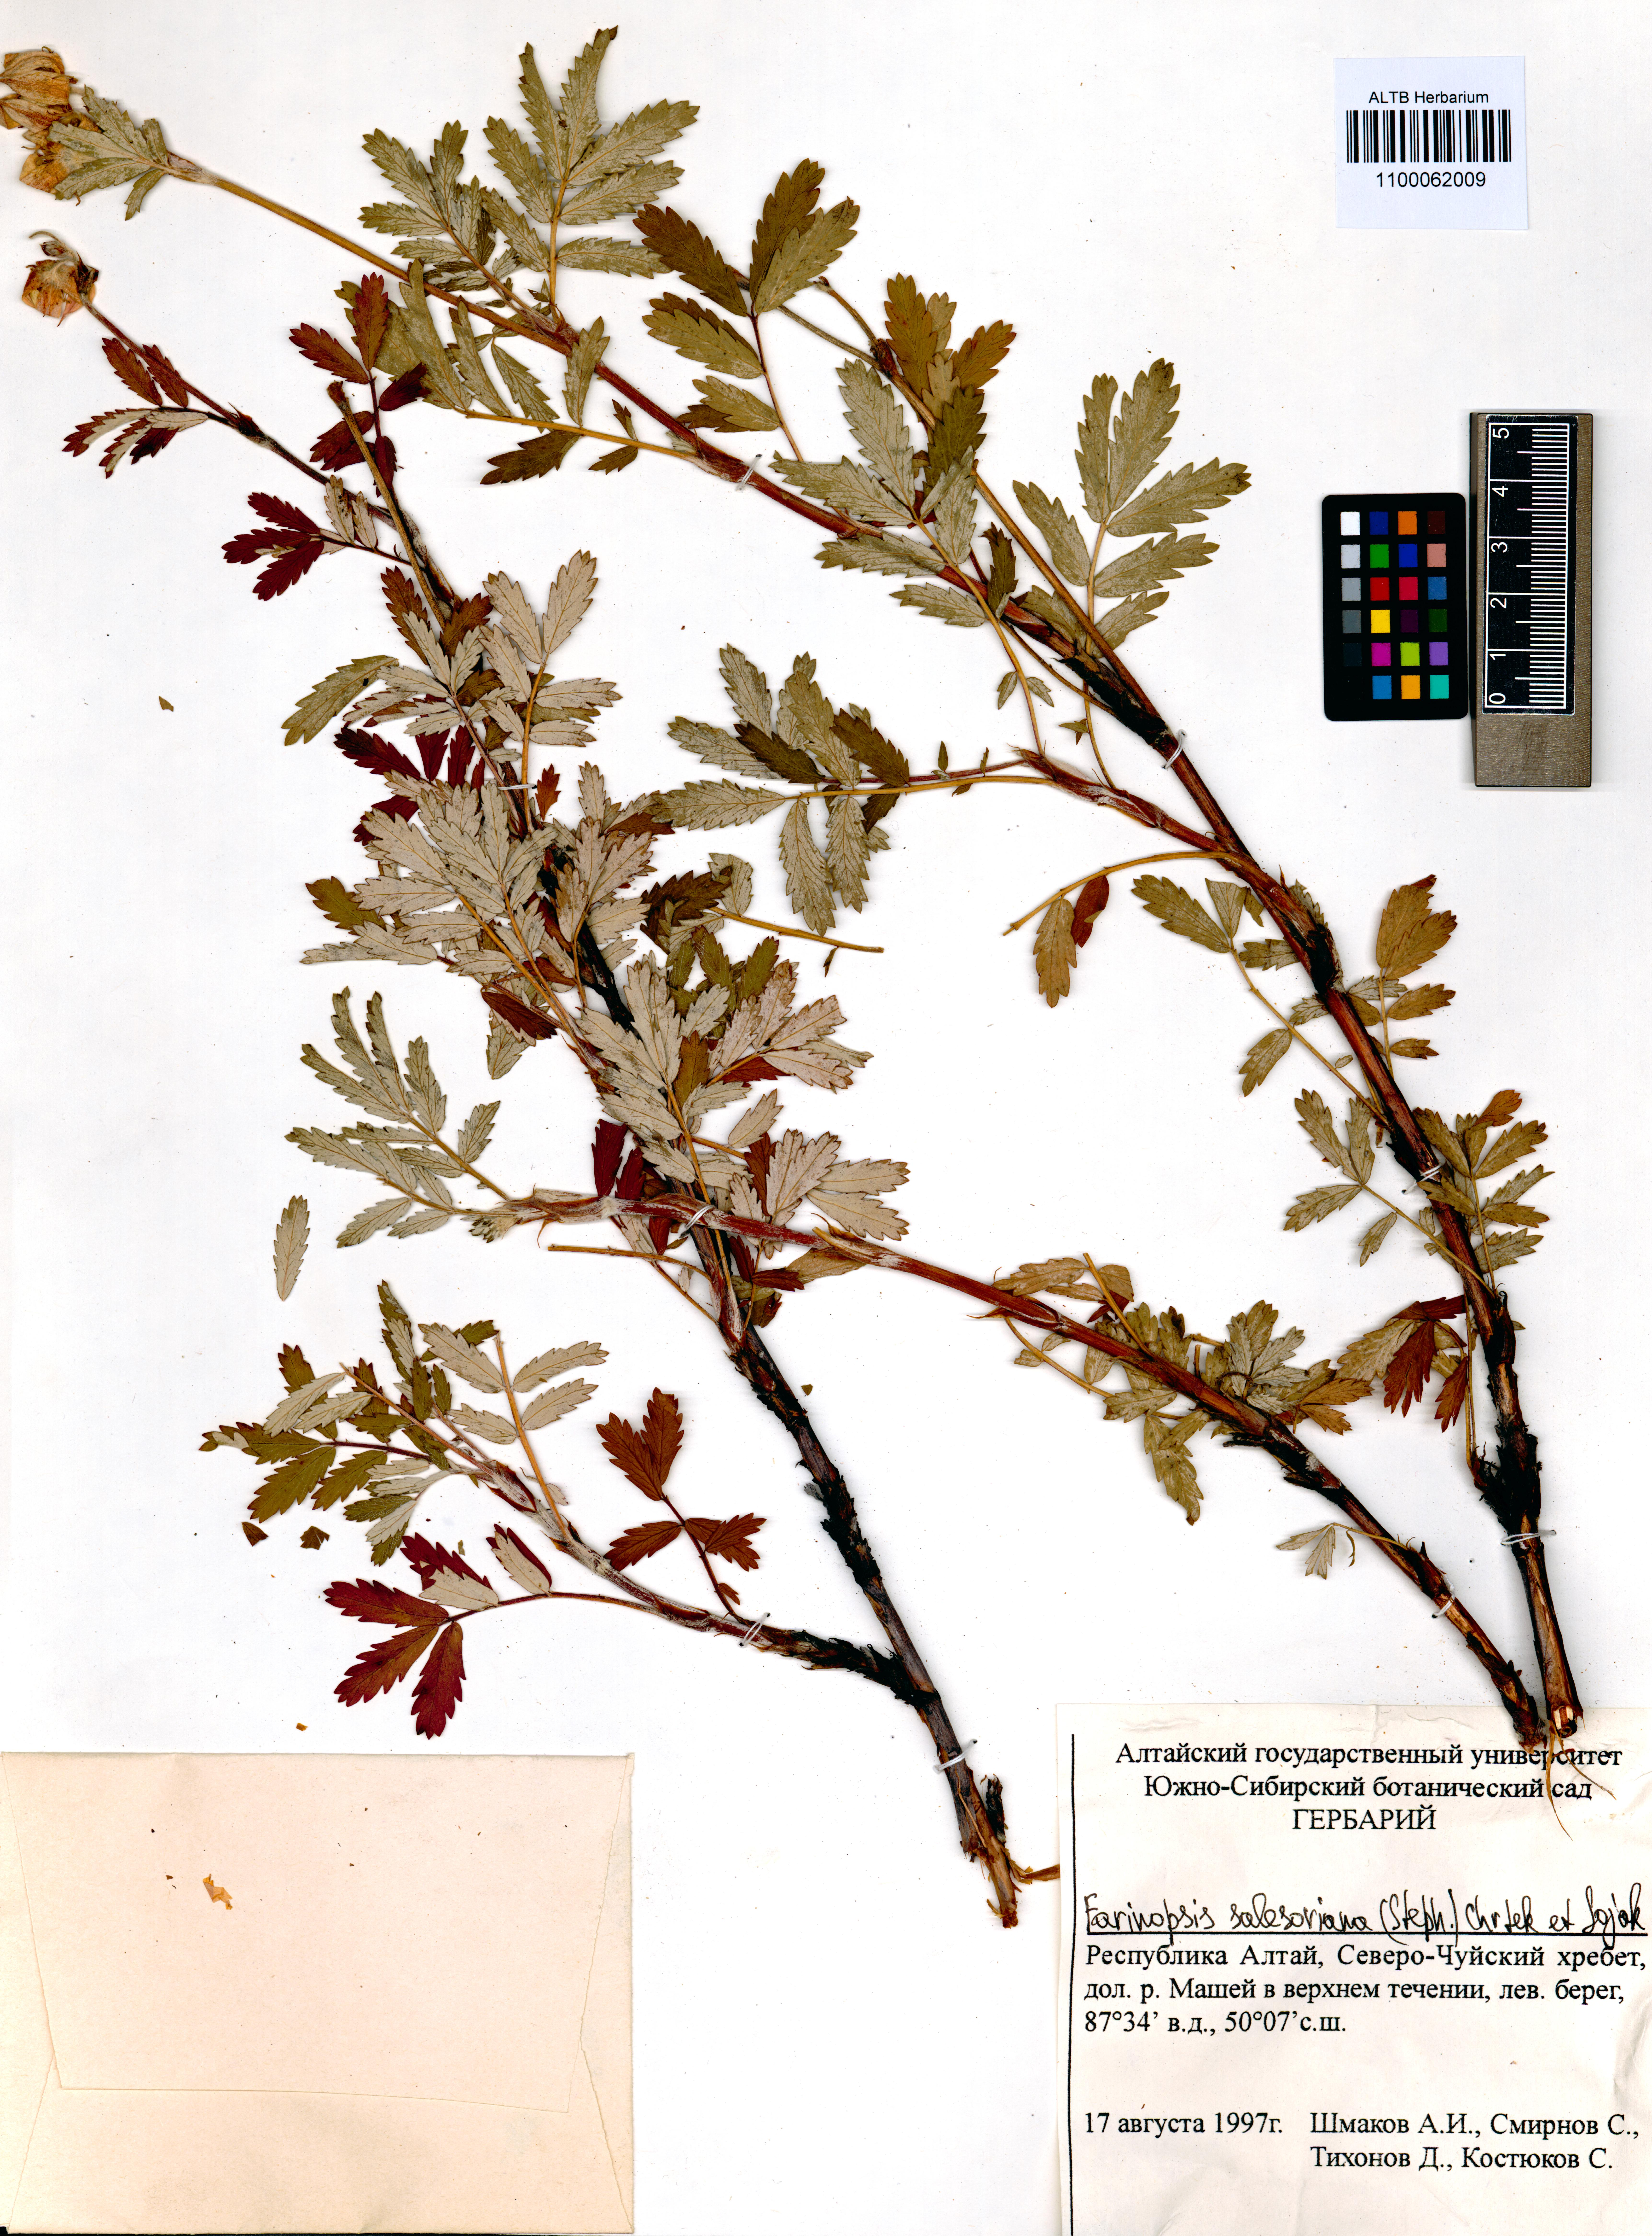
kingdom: Plantae
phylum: Tracheophyta
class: Magnoliopsida
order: Rosales
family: Rosaceae
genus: Farinopsis
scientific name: Farinopsis salesoviana
